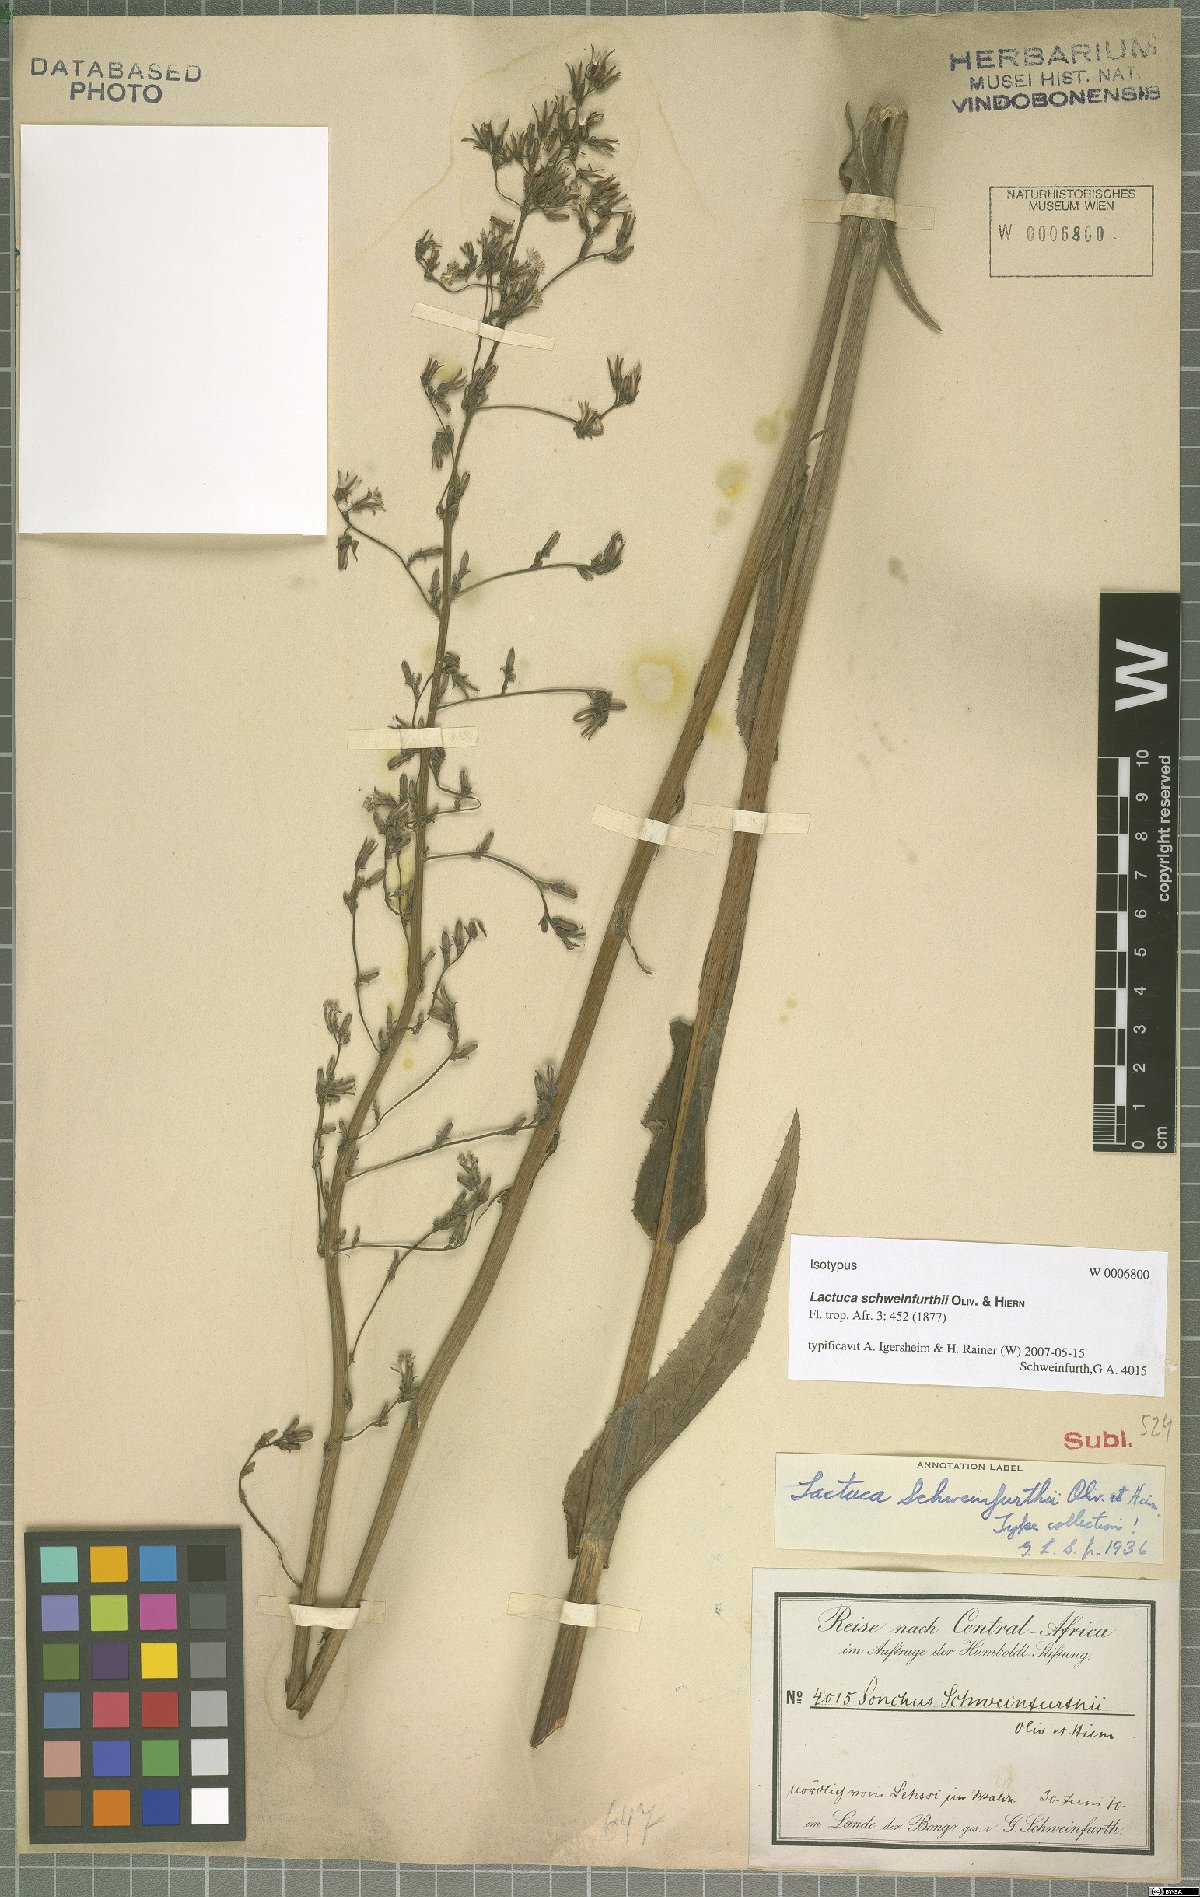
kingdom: Plantae
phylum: Tracheophyta
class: Magnoliopsida
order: Asterales
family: Asteraceae
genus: Lactuca
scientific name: Lactuca schweinfurthii
